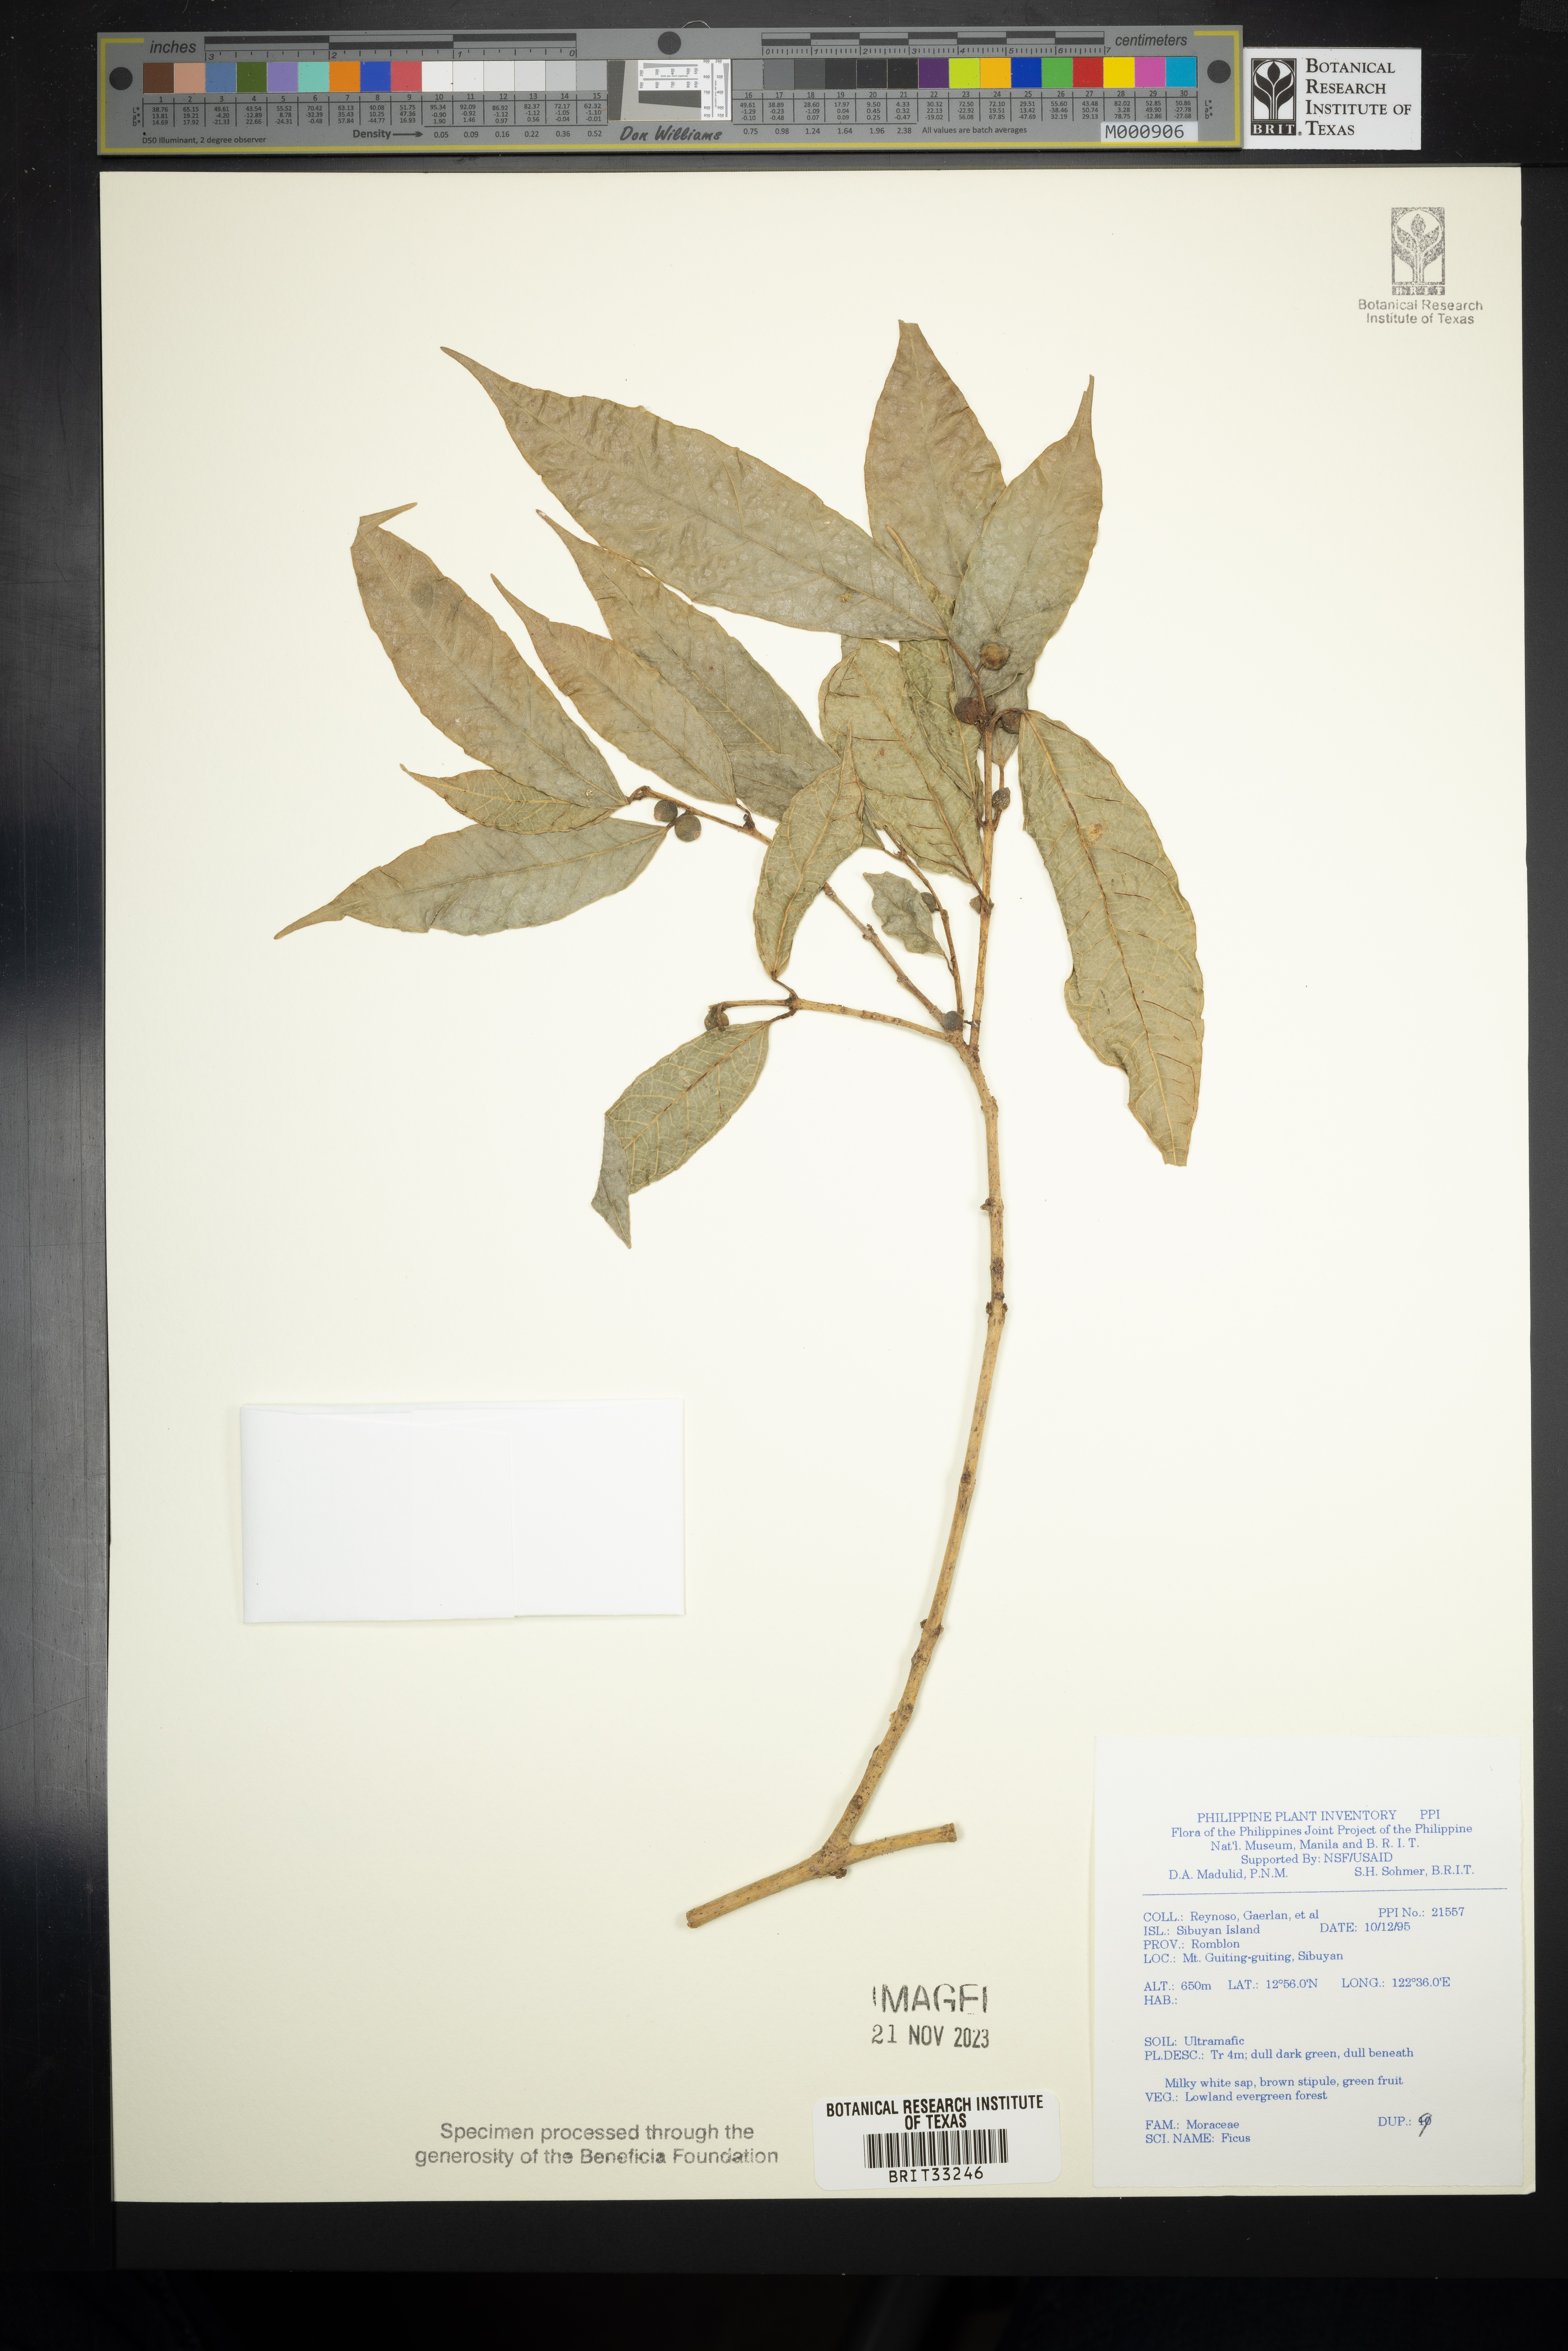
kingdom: Plantae
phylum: Tracheophyta
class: Magnoliopsida
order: Rosales
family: Moraceae
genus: Ficus
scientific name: Ficus
